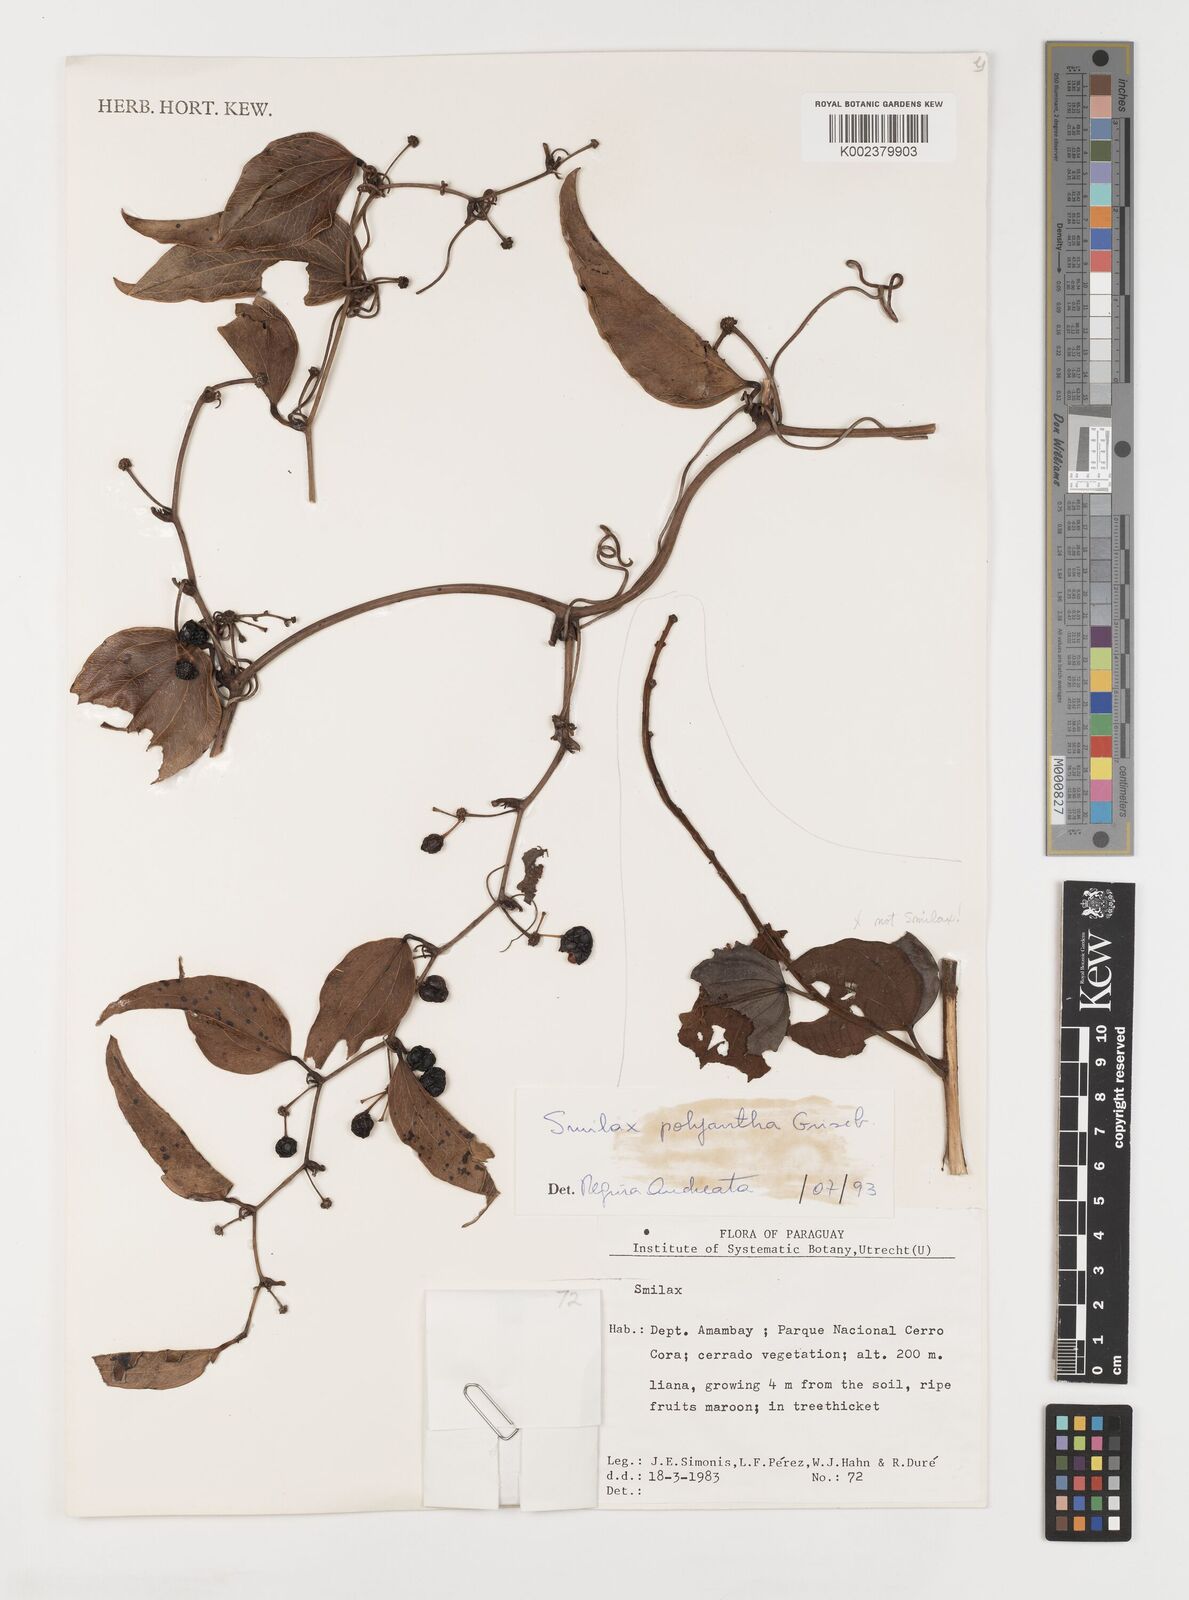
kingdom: Plantae
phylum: Tracheophyta
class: Liliopsida
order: Liliales
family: Smilacaceae
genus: Smilax
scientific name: Smilax polyantha
